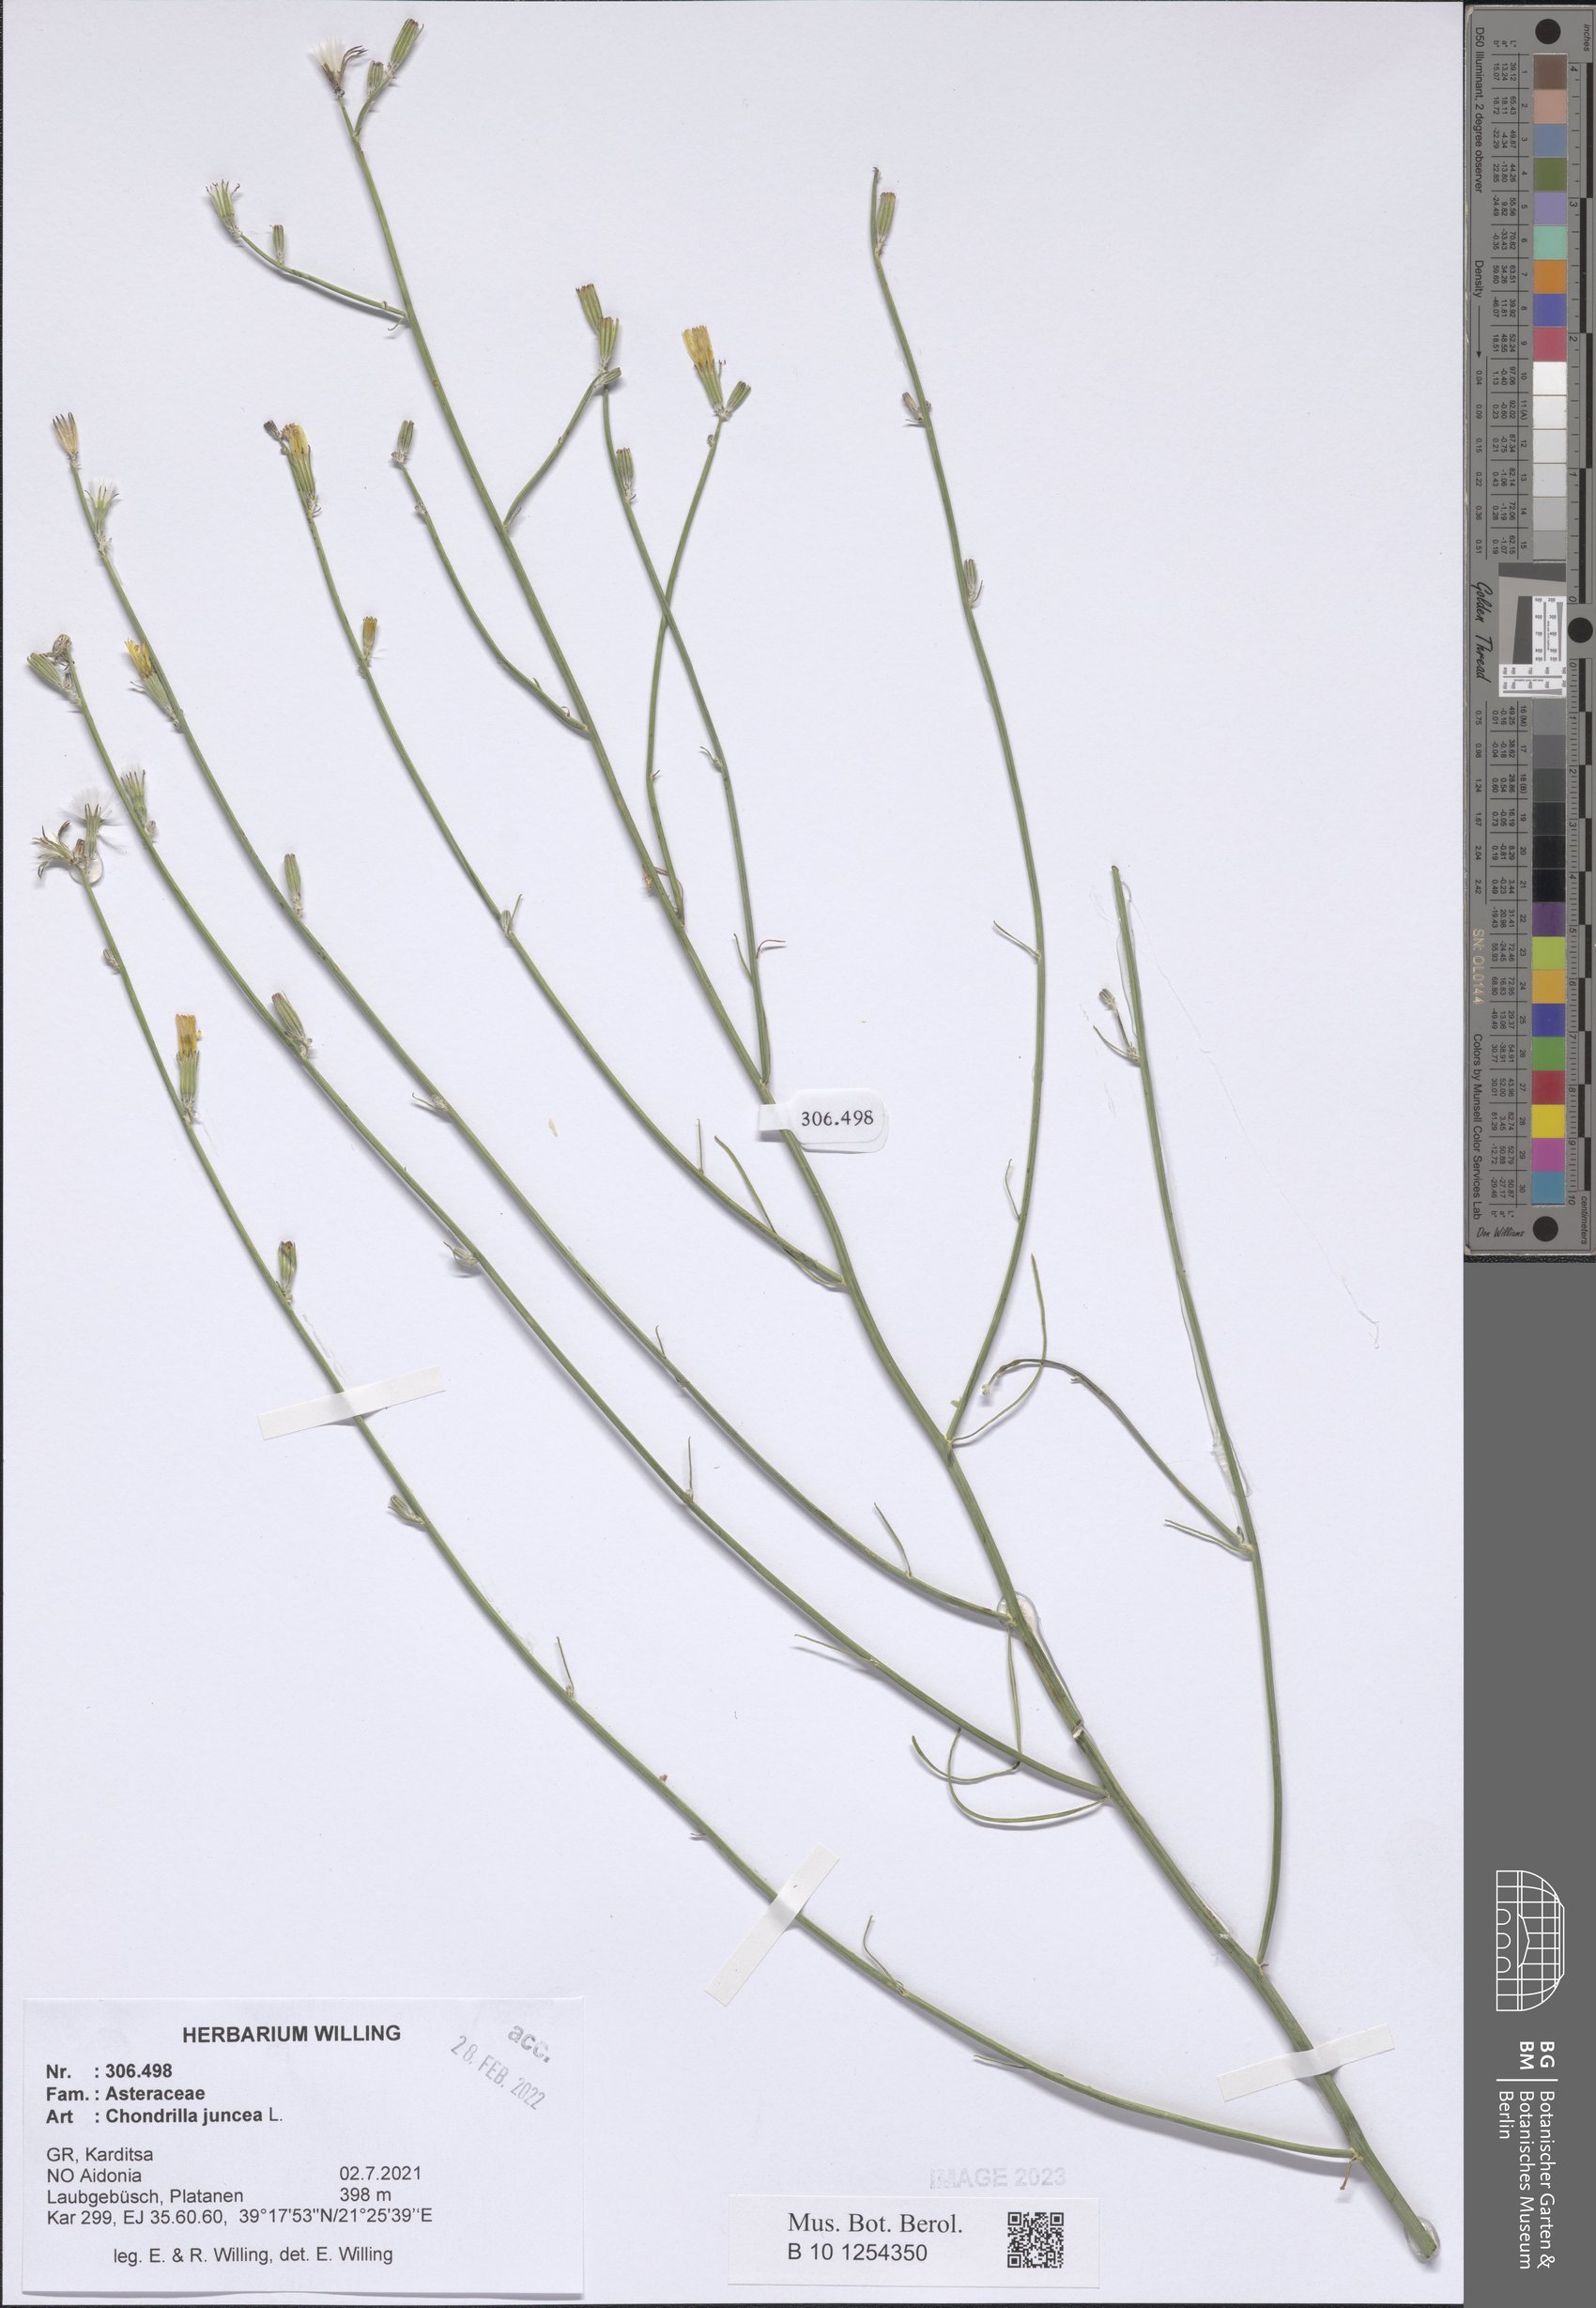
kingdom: Plantae
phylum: Tracheophyta
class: Magnoliopsida
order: Asterales
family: Asteraceae
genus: Chondrilla
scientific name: Chondrilla juncea
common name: Skeleton weed
